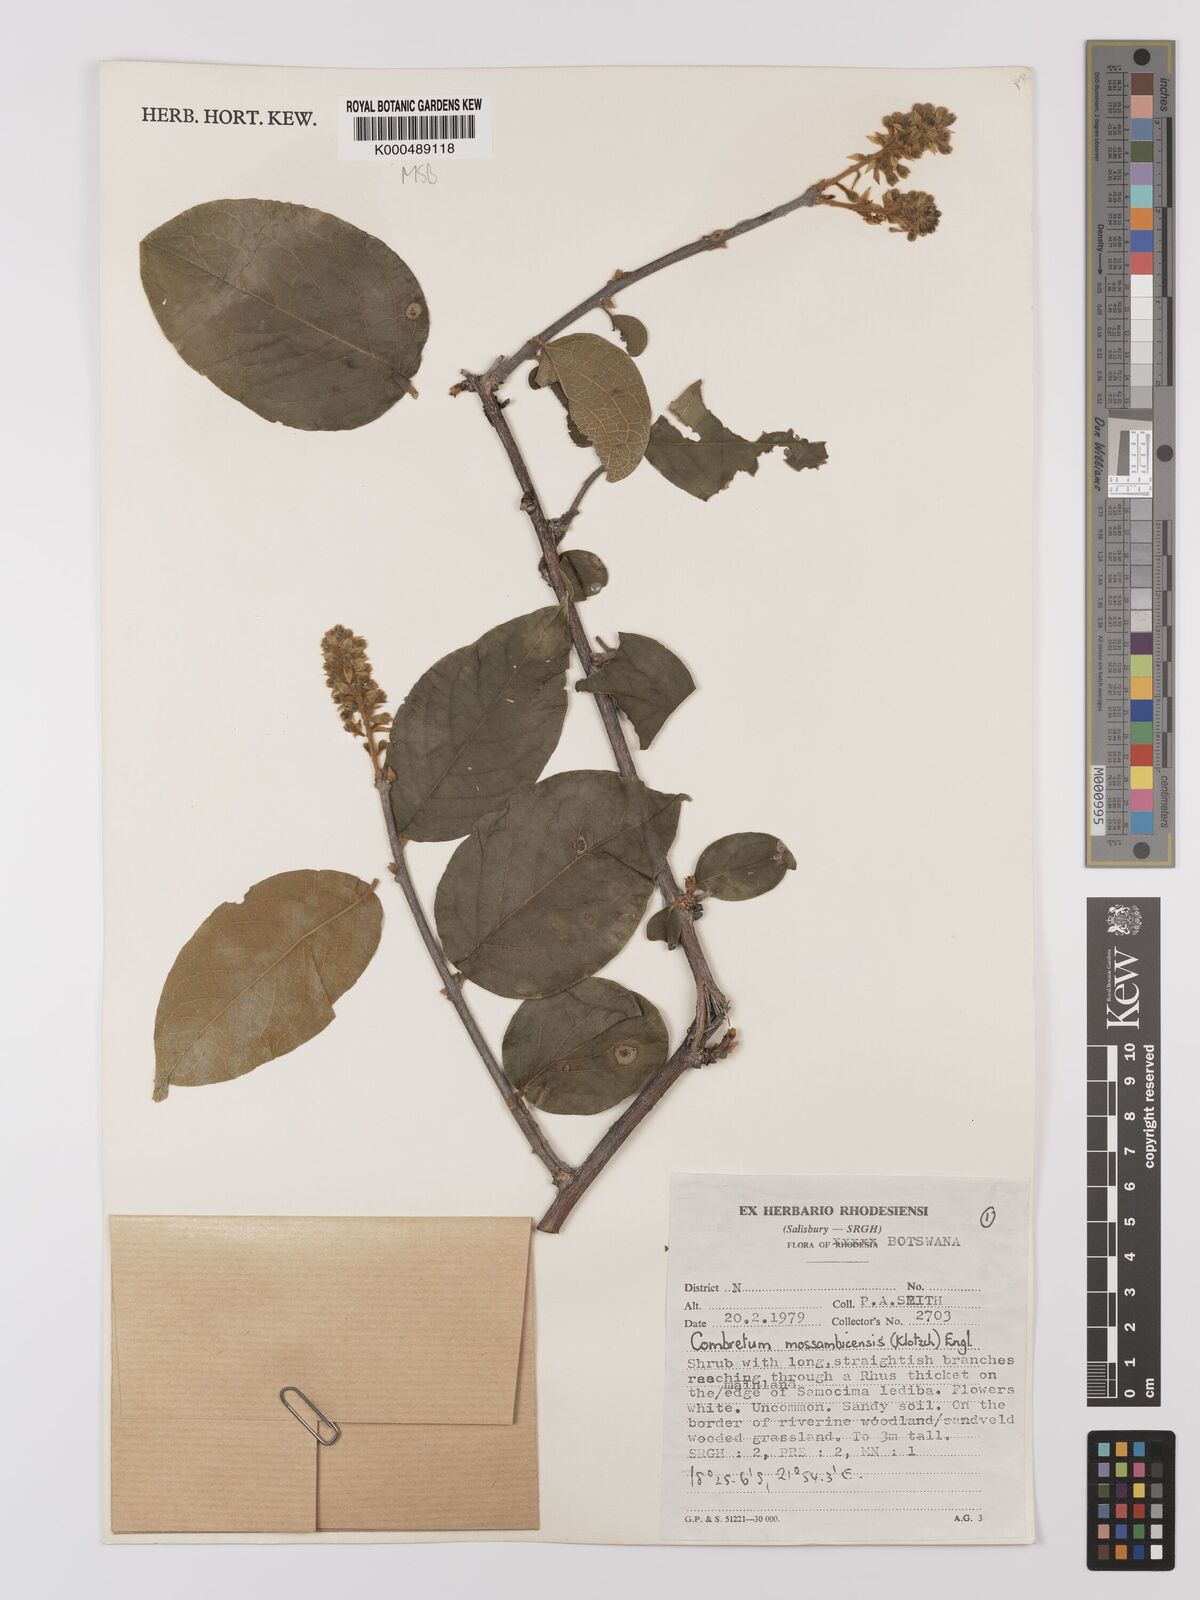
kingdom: Plantae
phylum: Tracheophyta
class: Magnoliopsida
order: Myrtales
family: Combretaceae
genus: Combretum
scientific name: Combretum mossambicense
